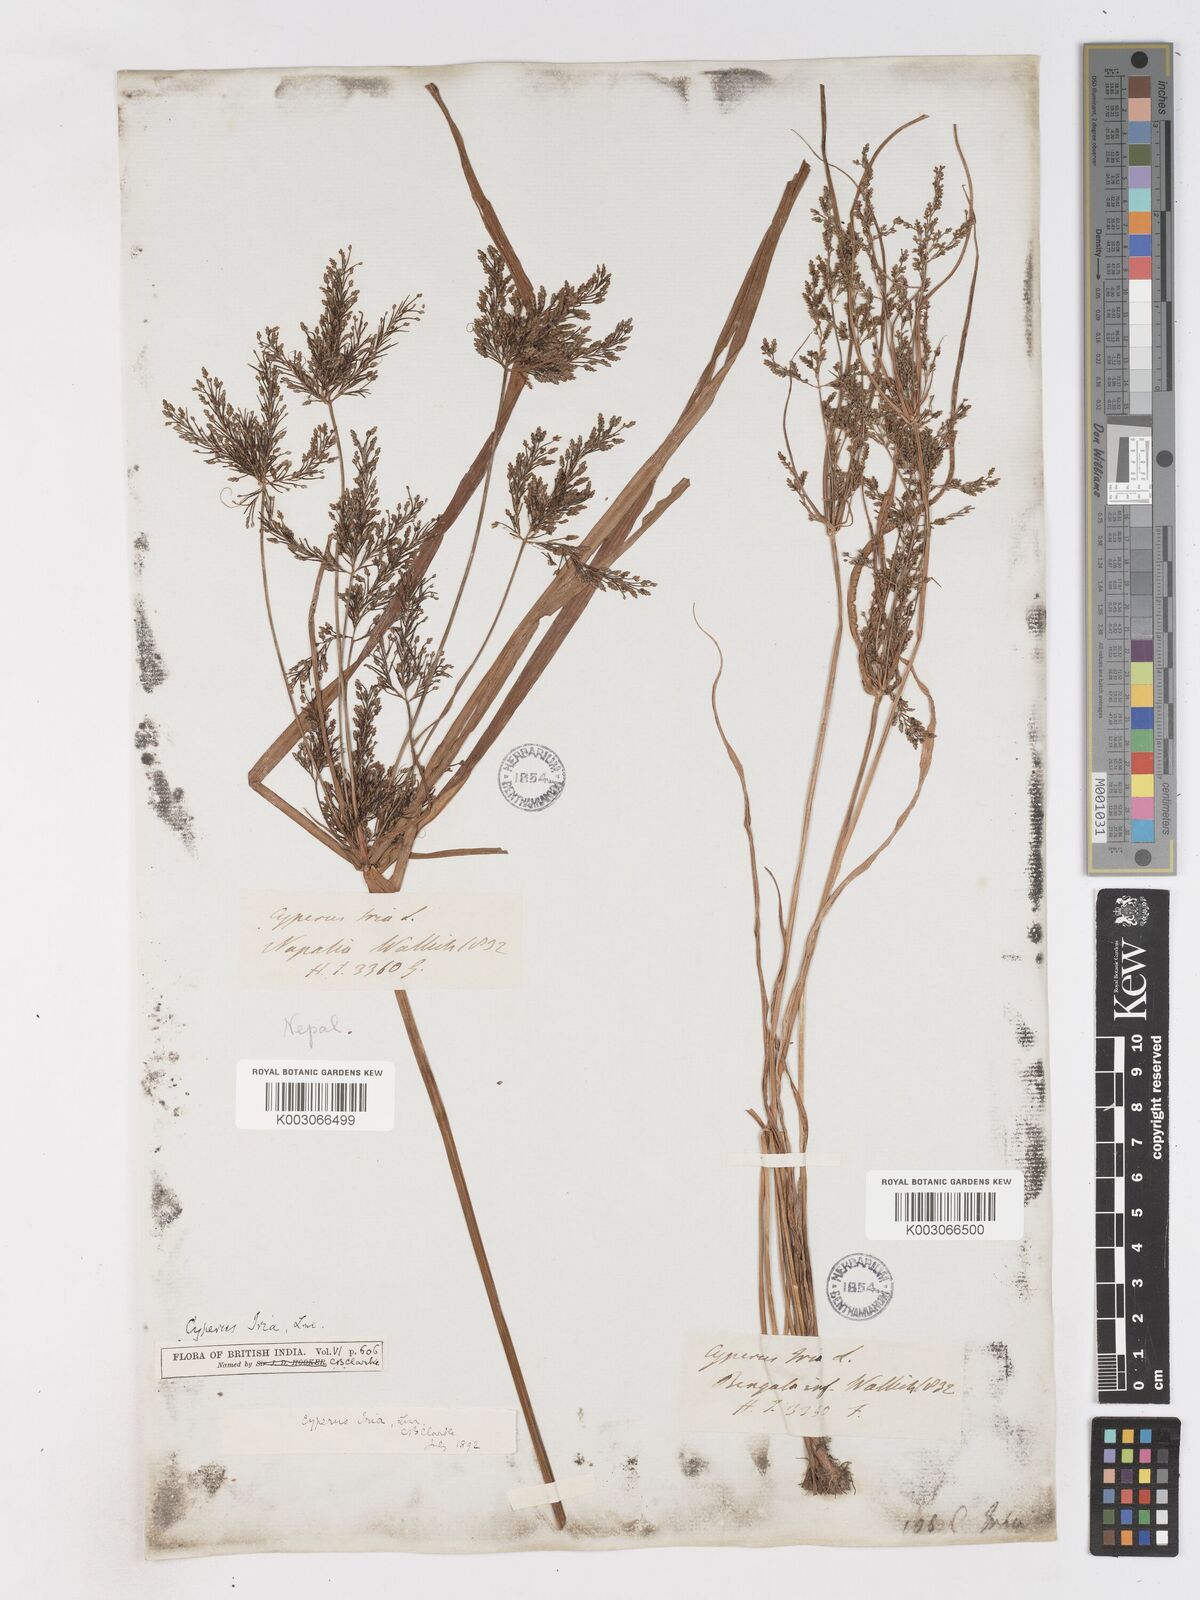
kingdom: Plantae
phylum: Tracheophyta
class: Liliopsida
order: Poales
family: Cyperaceae
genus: Cyperus
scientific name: Cyperus iria
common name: Ricefield flatsedge
